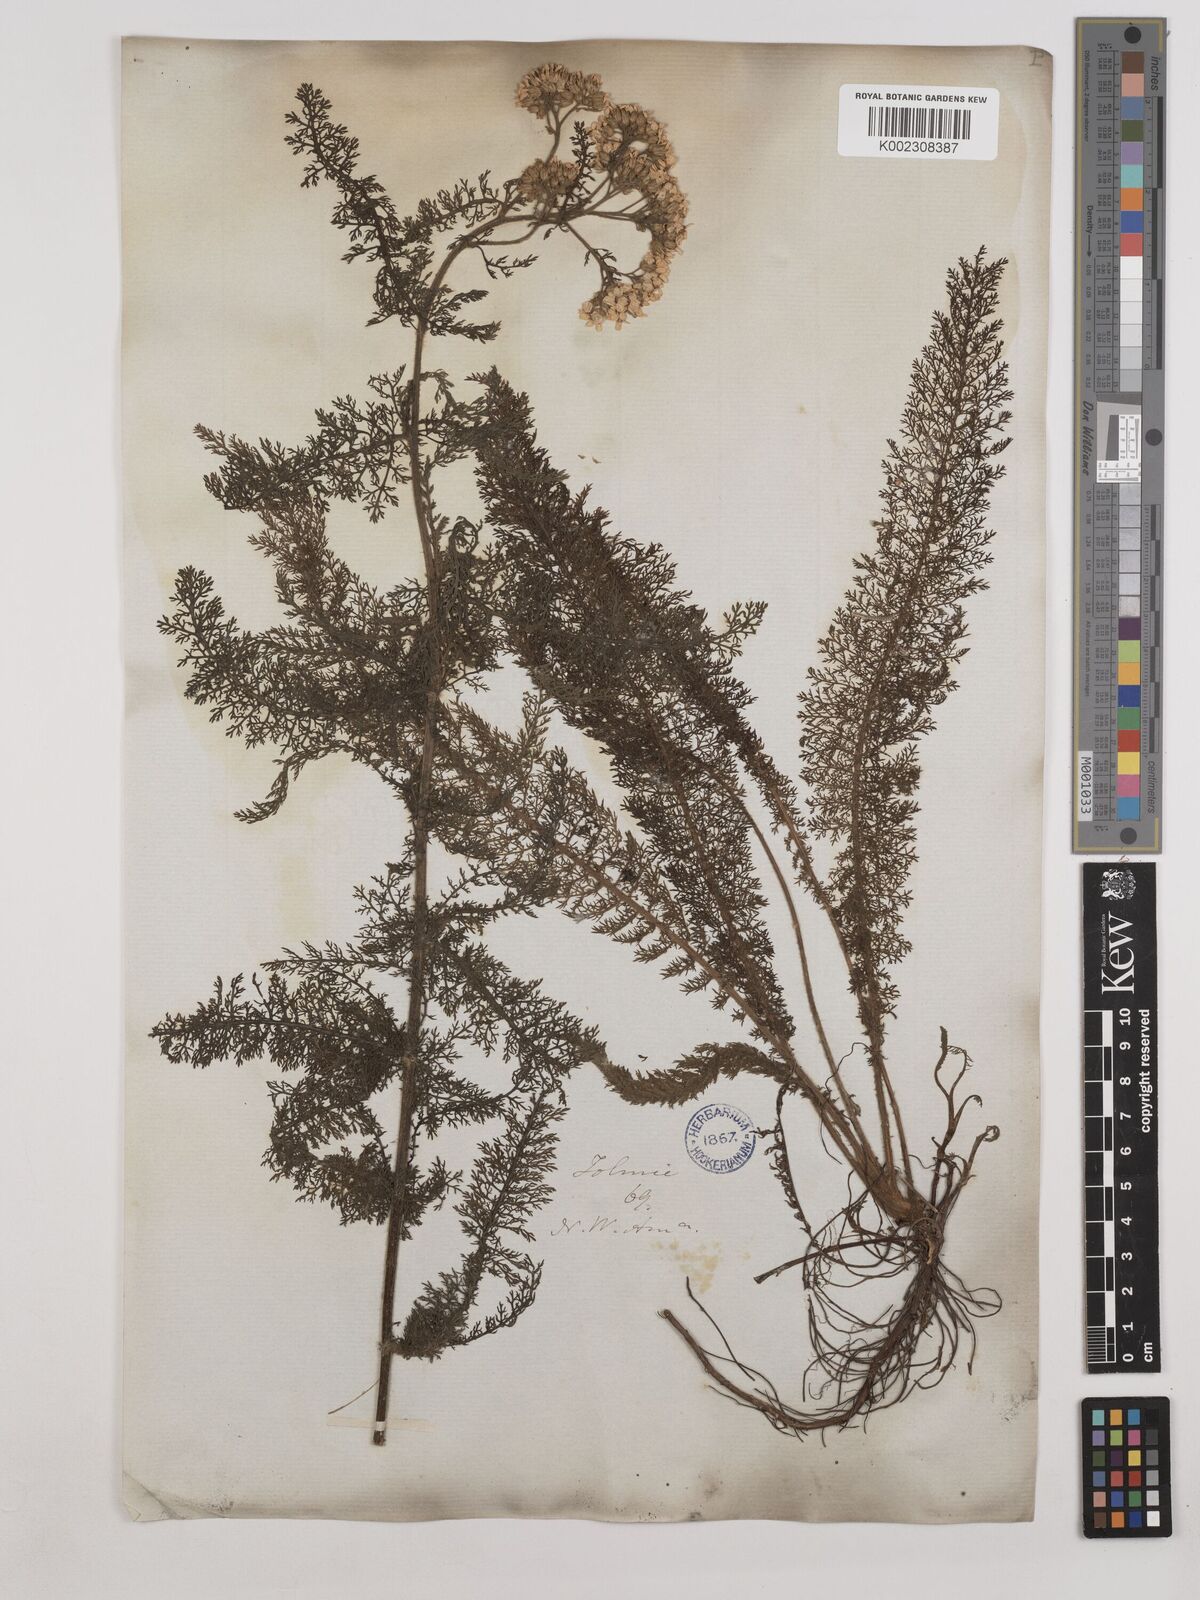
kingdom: Plantae
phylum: Tracheophyta
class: Magnoliopsida
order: Asterales
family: Asteraceae
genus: Achillea
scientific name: Achillea millefolium
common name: Yarrow
